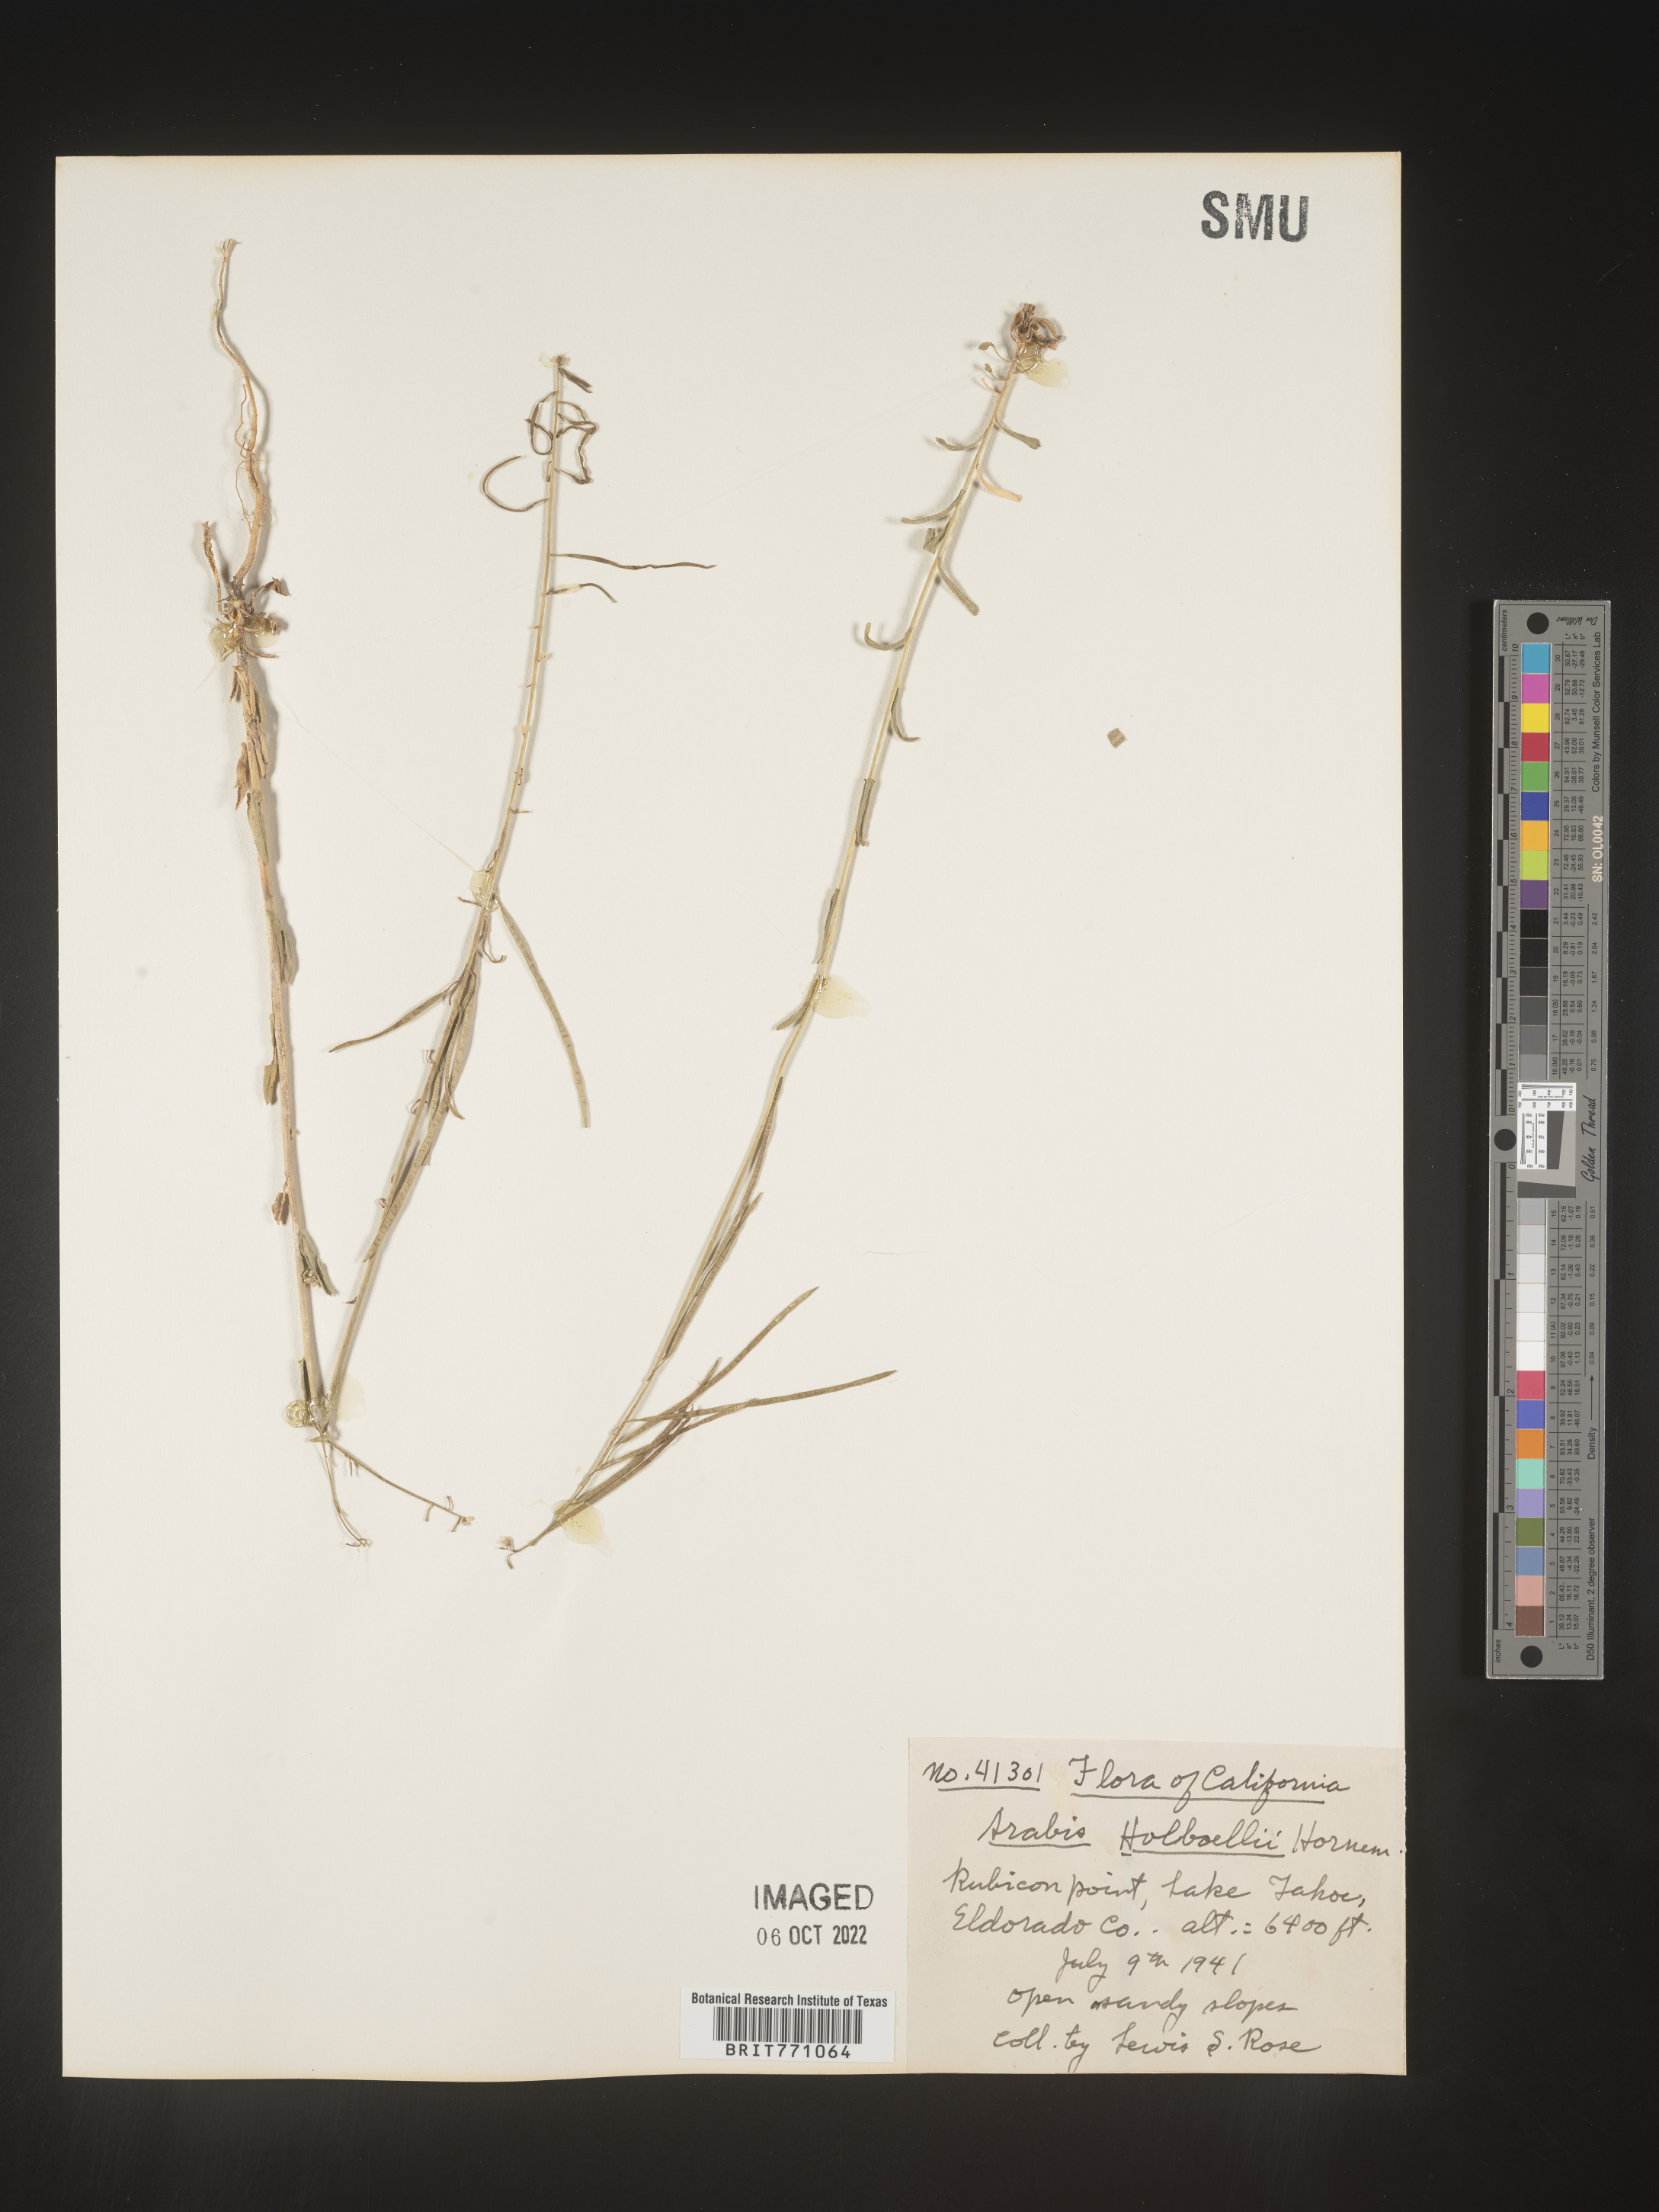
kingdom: Plantae
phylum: Tracheophyta
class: Magnoliopsida
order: Brassicales
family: Brassicaceae
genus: Boechera
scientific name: Boechera holboellii
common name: Holboell's rockcress
